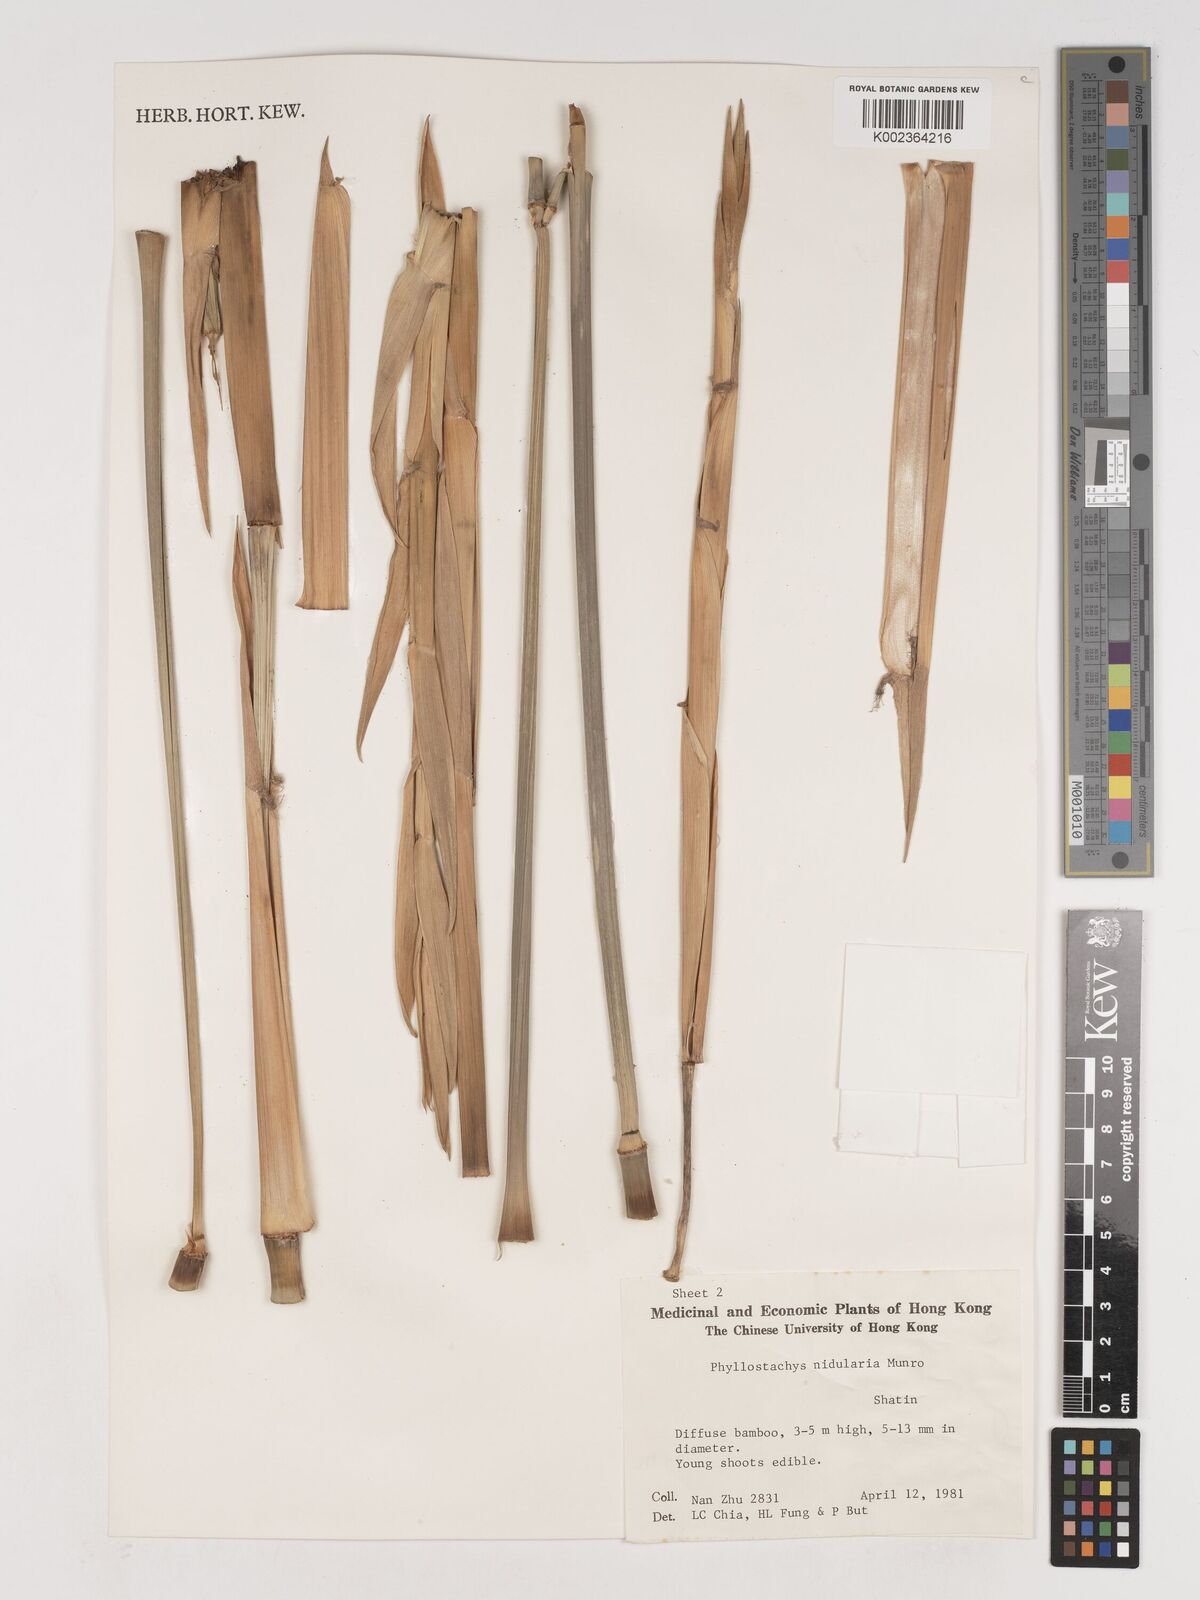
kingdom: Plantae
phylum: Tracheophyta
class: Liliopsida
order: Poales
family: Poaceae
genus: Phyllostachys
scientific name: Phyllostachys nidularia
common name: Broom bamboo
